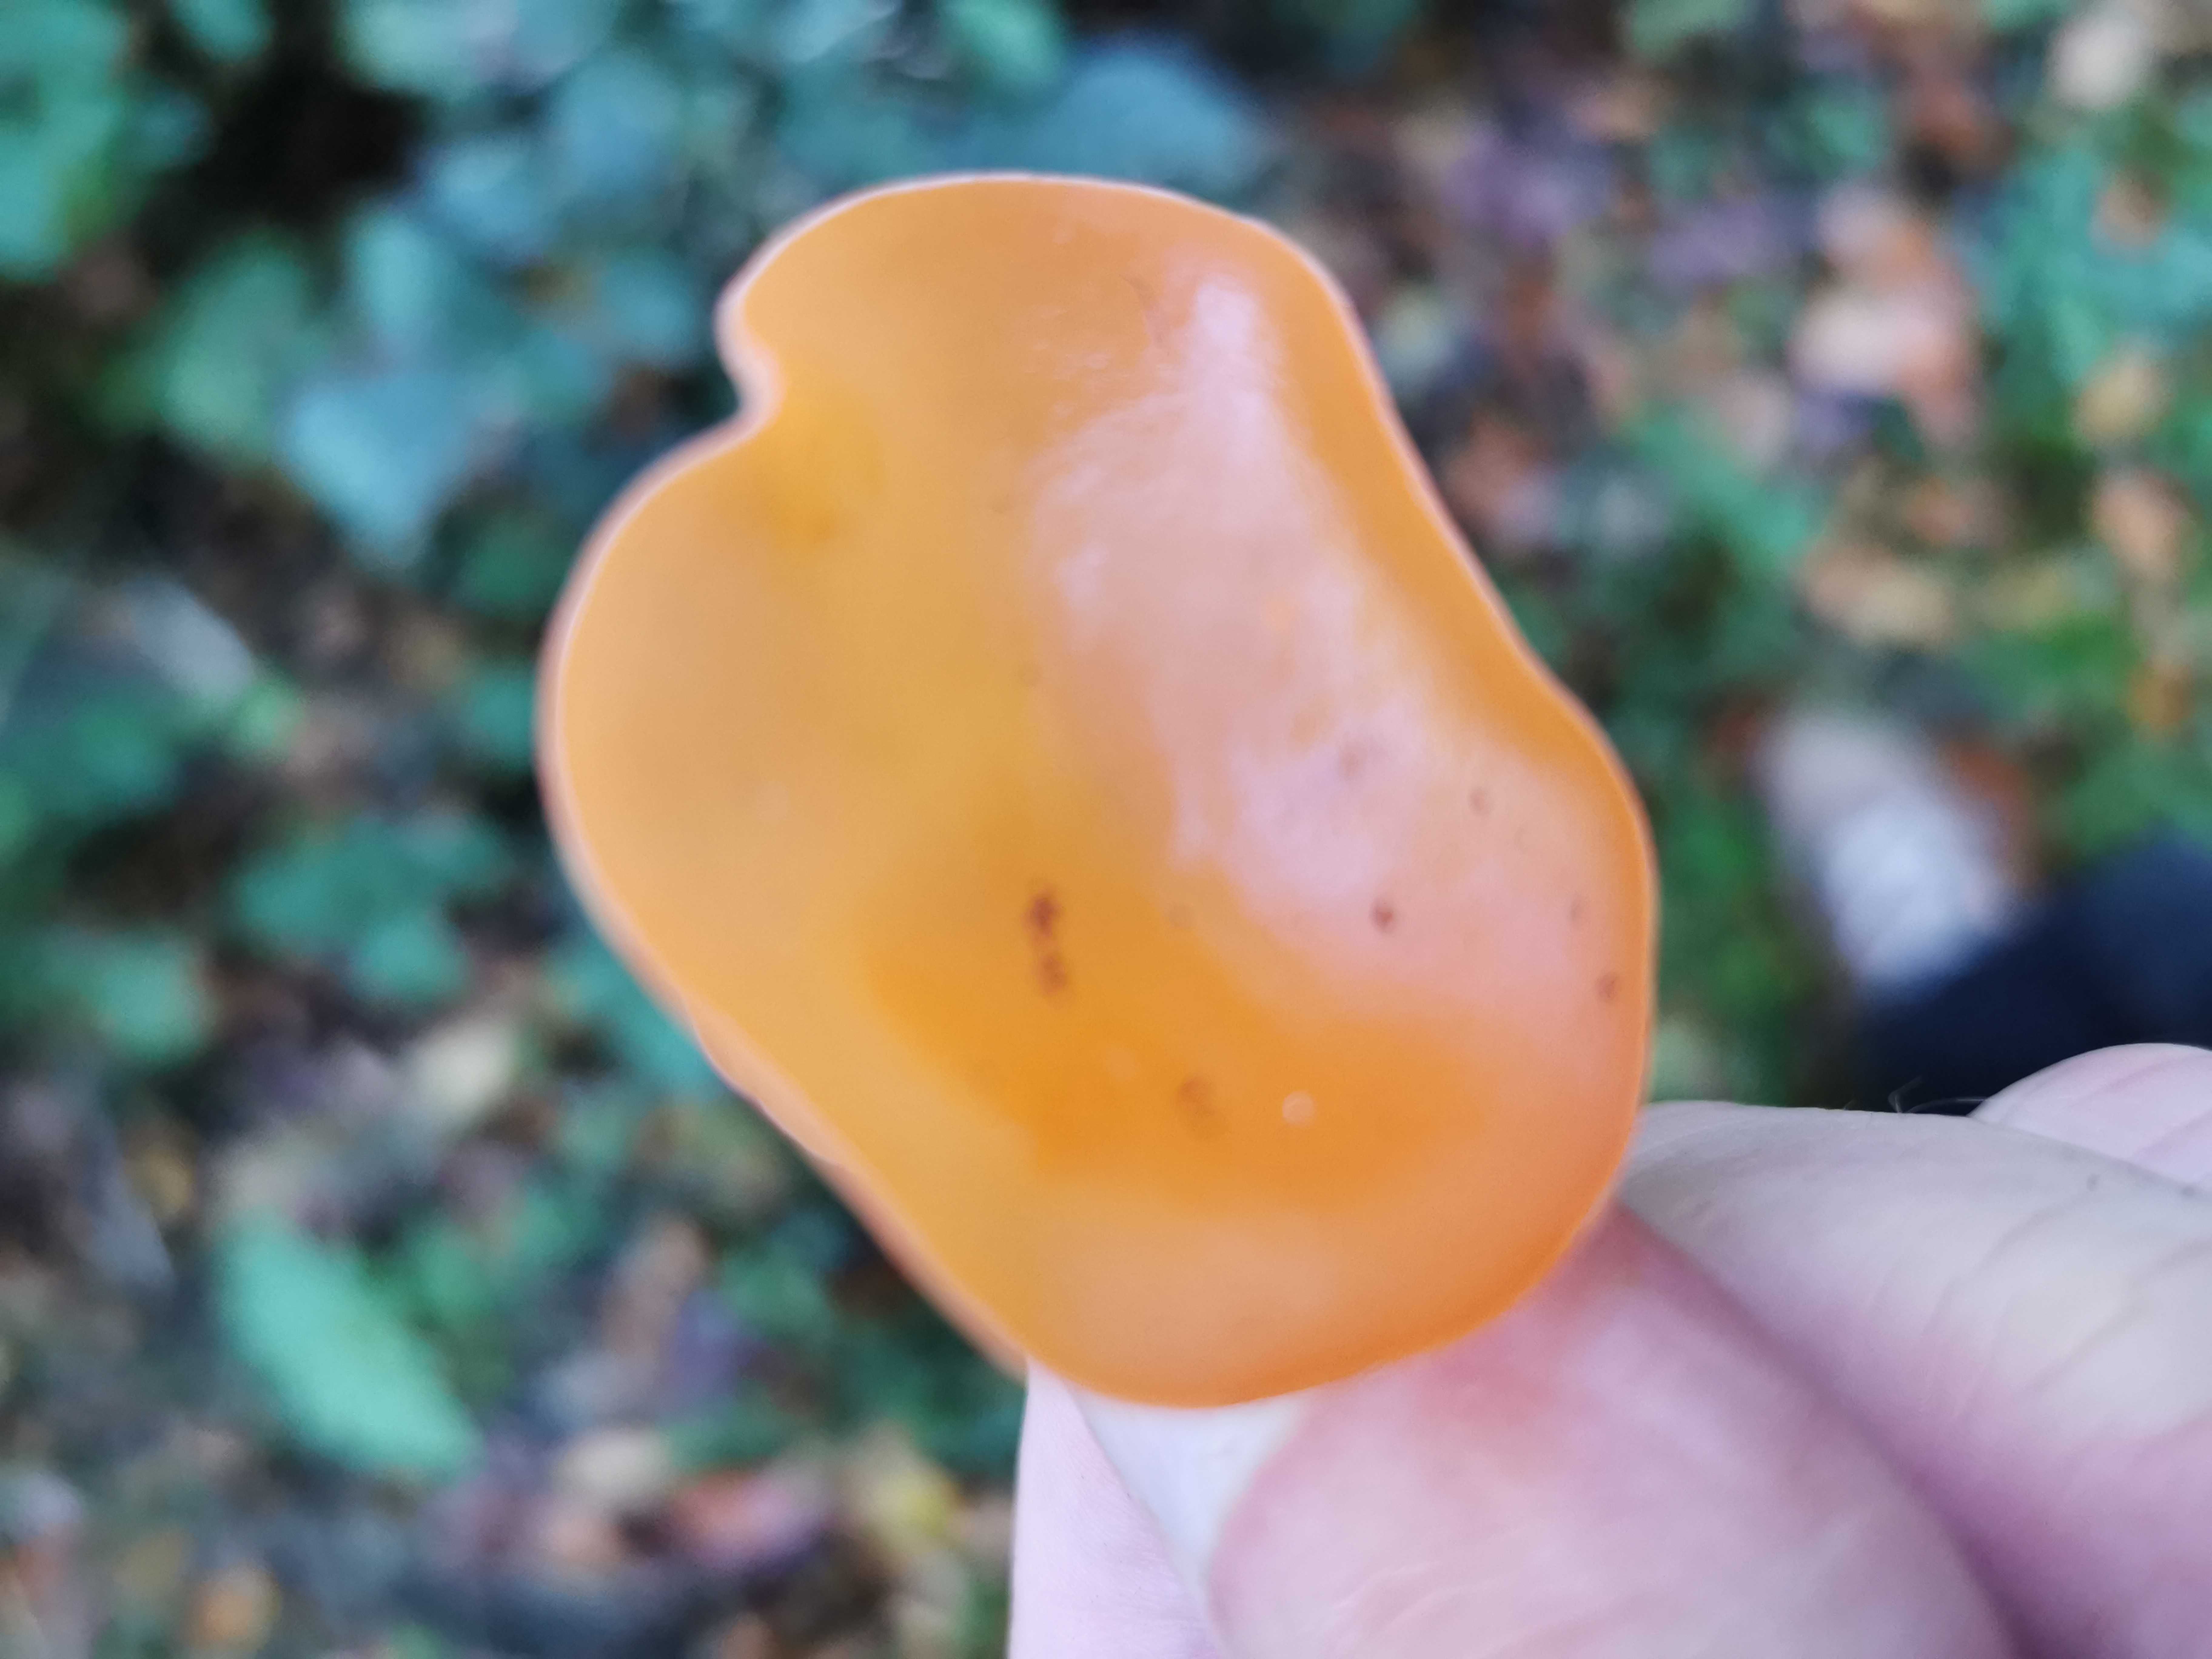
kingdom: Fungi
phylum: Ascomycota
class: Pezizomycetes
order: Pezizales
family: Pyronemataceae
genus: Aleuria
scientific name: Aleuria aurantia
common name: almindelig orangebæger
